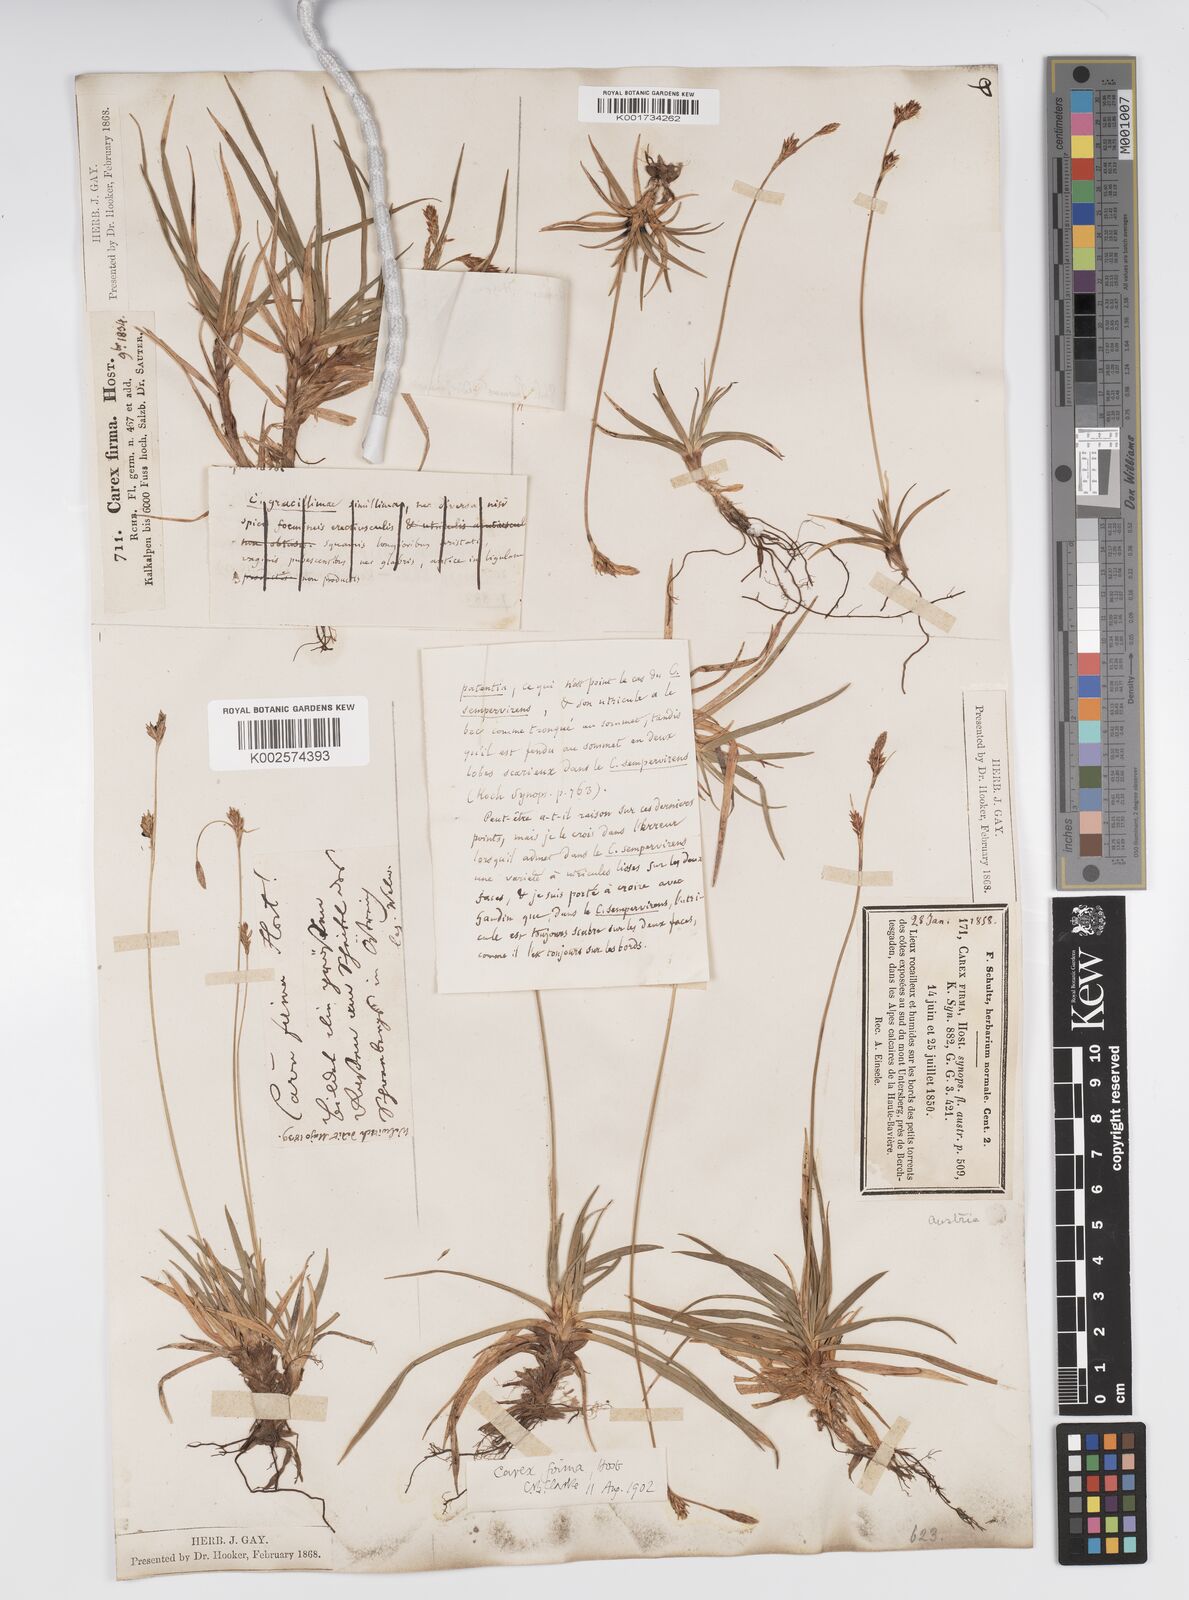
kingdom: Plantae
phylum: Tracheophyta
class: Liliopsida
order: Poales
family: Cyperaceae
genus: Carex
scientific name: Carex firma
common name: Dwarf pillow sedge
